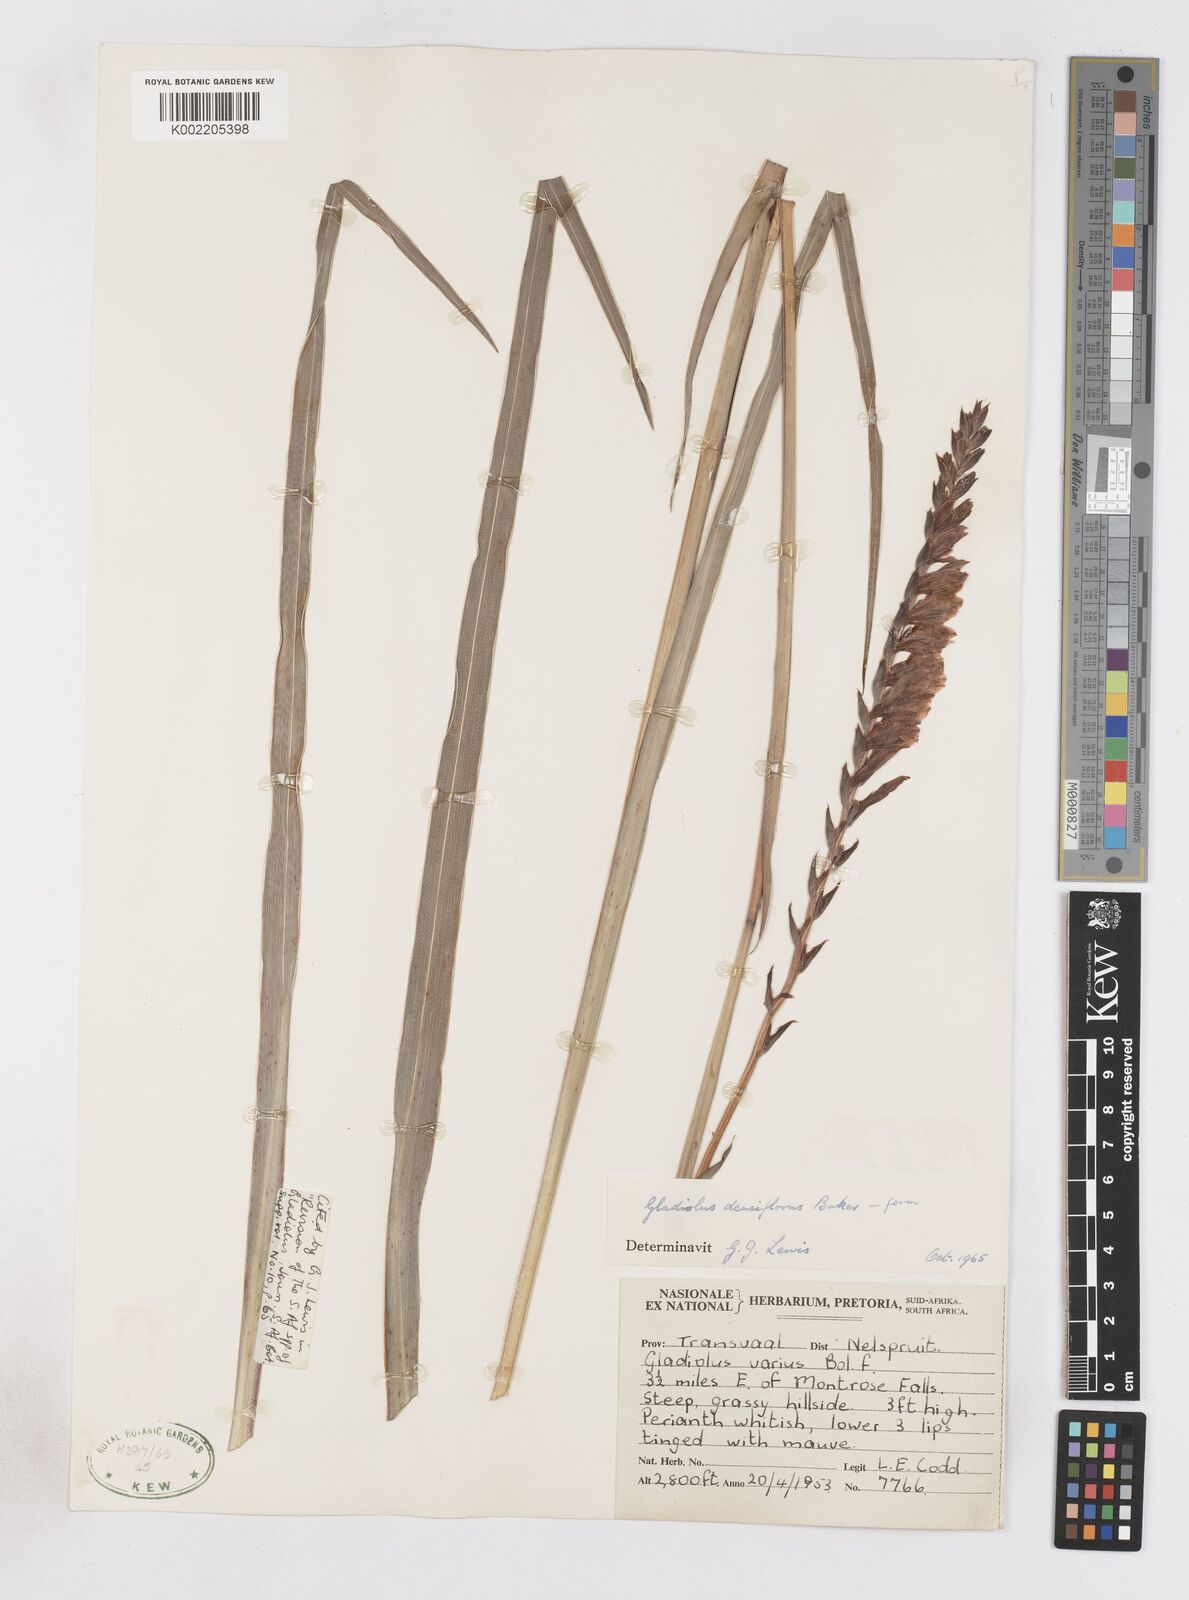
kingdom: Plantae
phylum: Tracheophyta
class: Liliopsida
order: Asparagales
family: Iridaceae
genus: Gladiolus
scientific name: Gladiolus densiflorus
